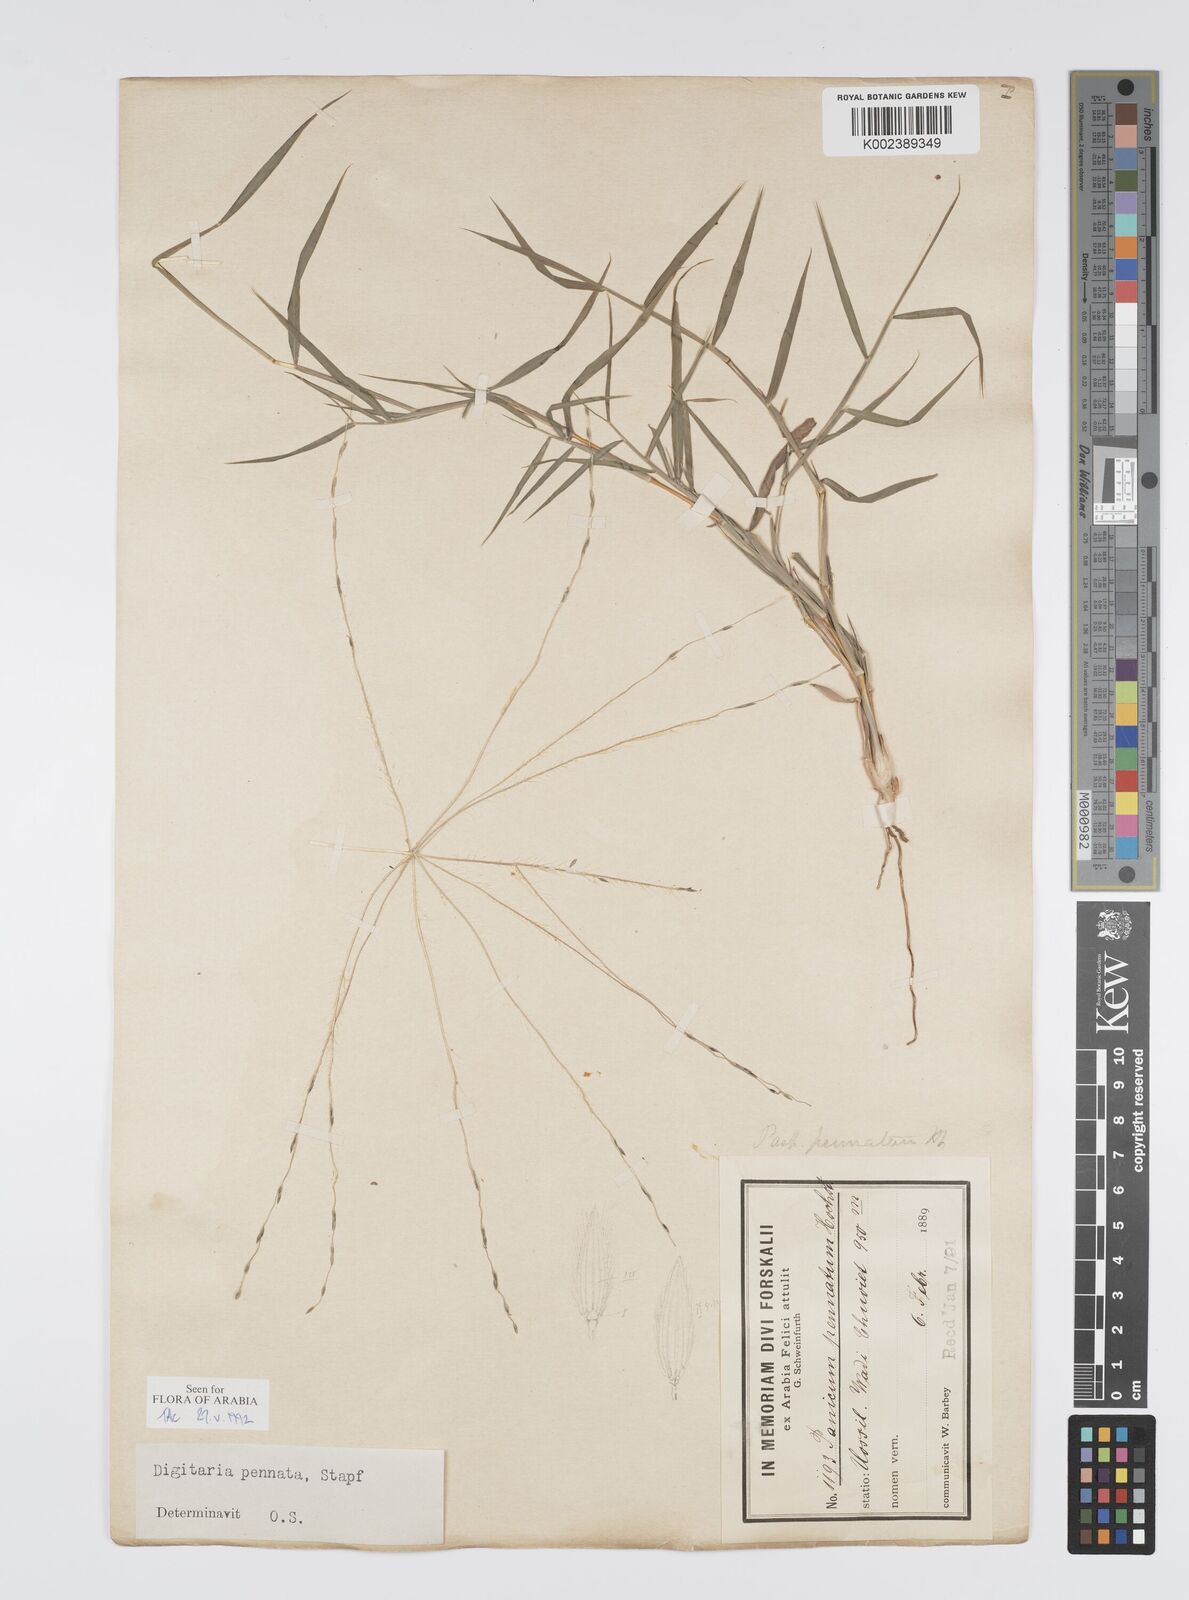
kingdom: Plantae
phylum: Tracheophyta
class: Liliopsida
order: Poales
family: Poaceae
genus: Digitaria
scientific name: Digitaria pennata
